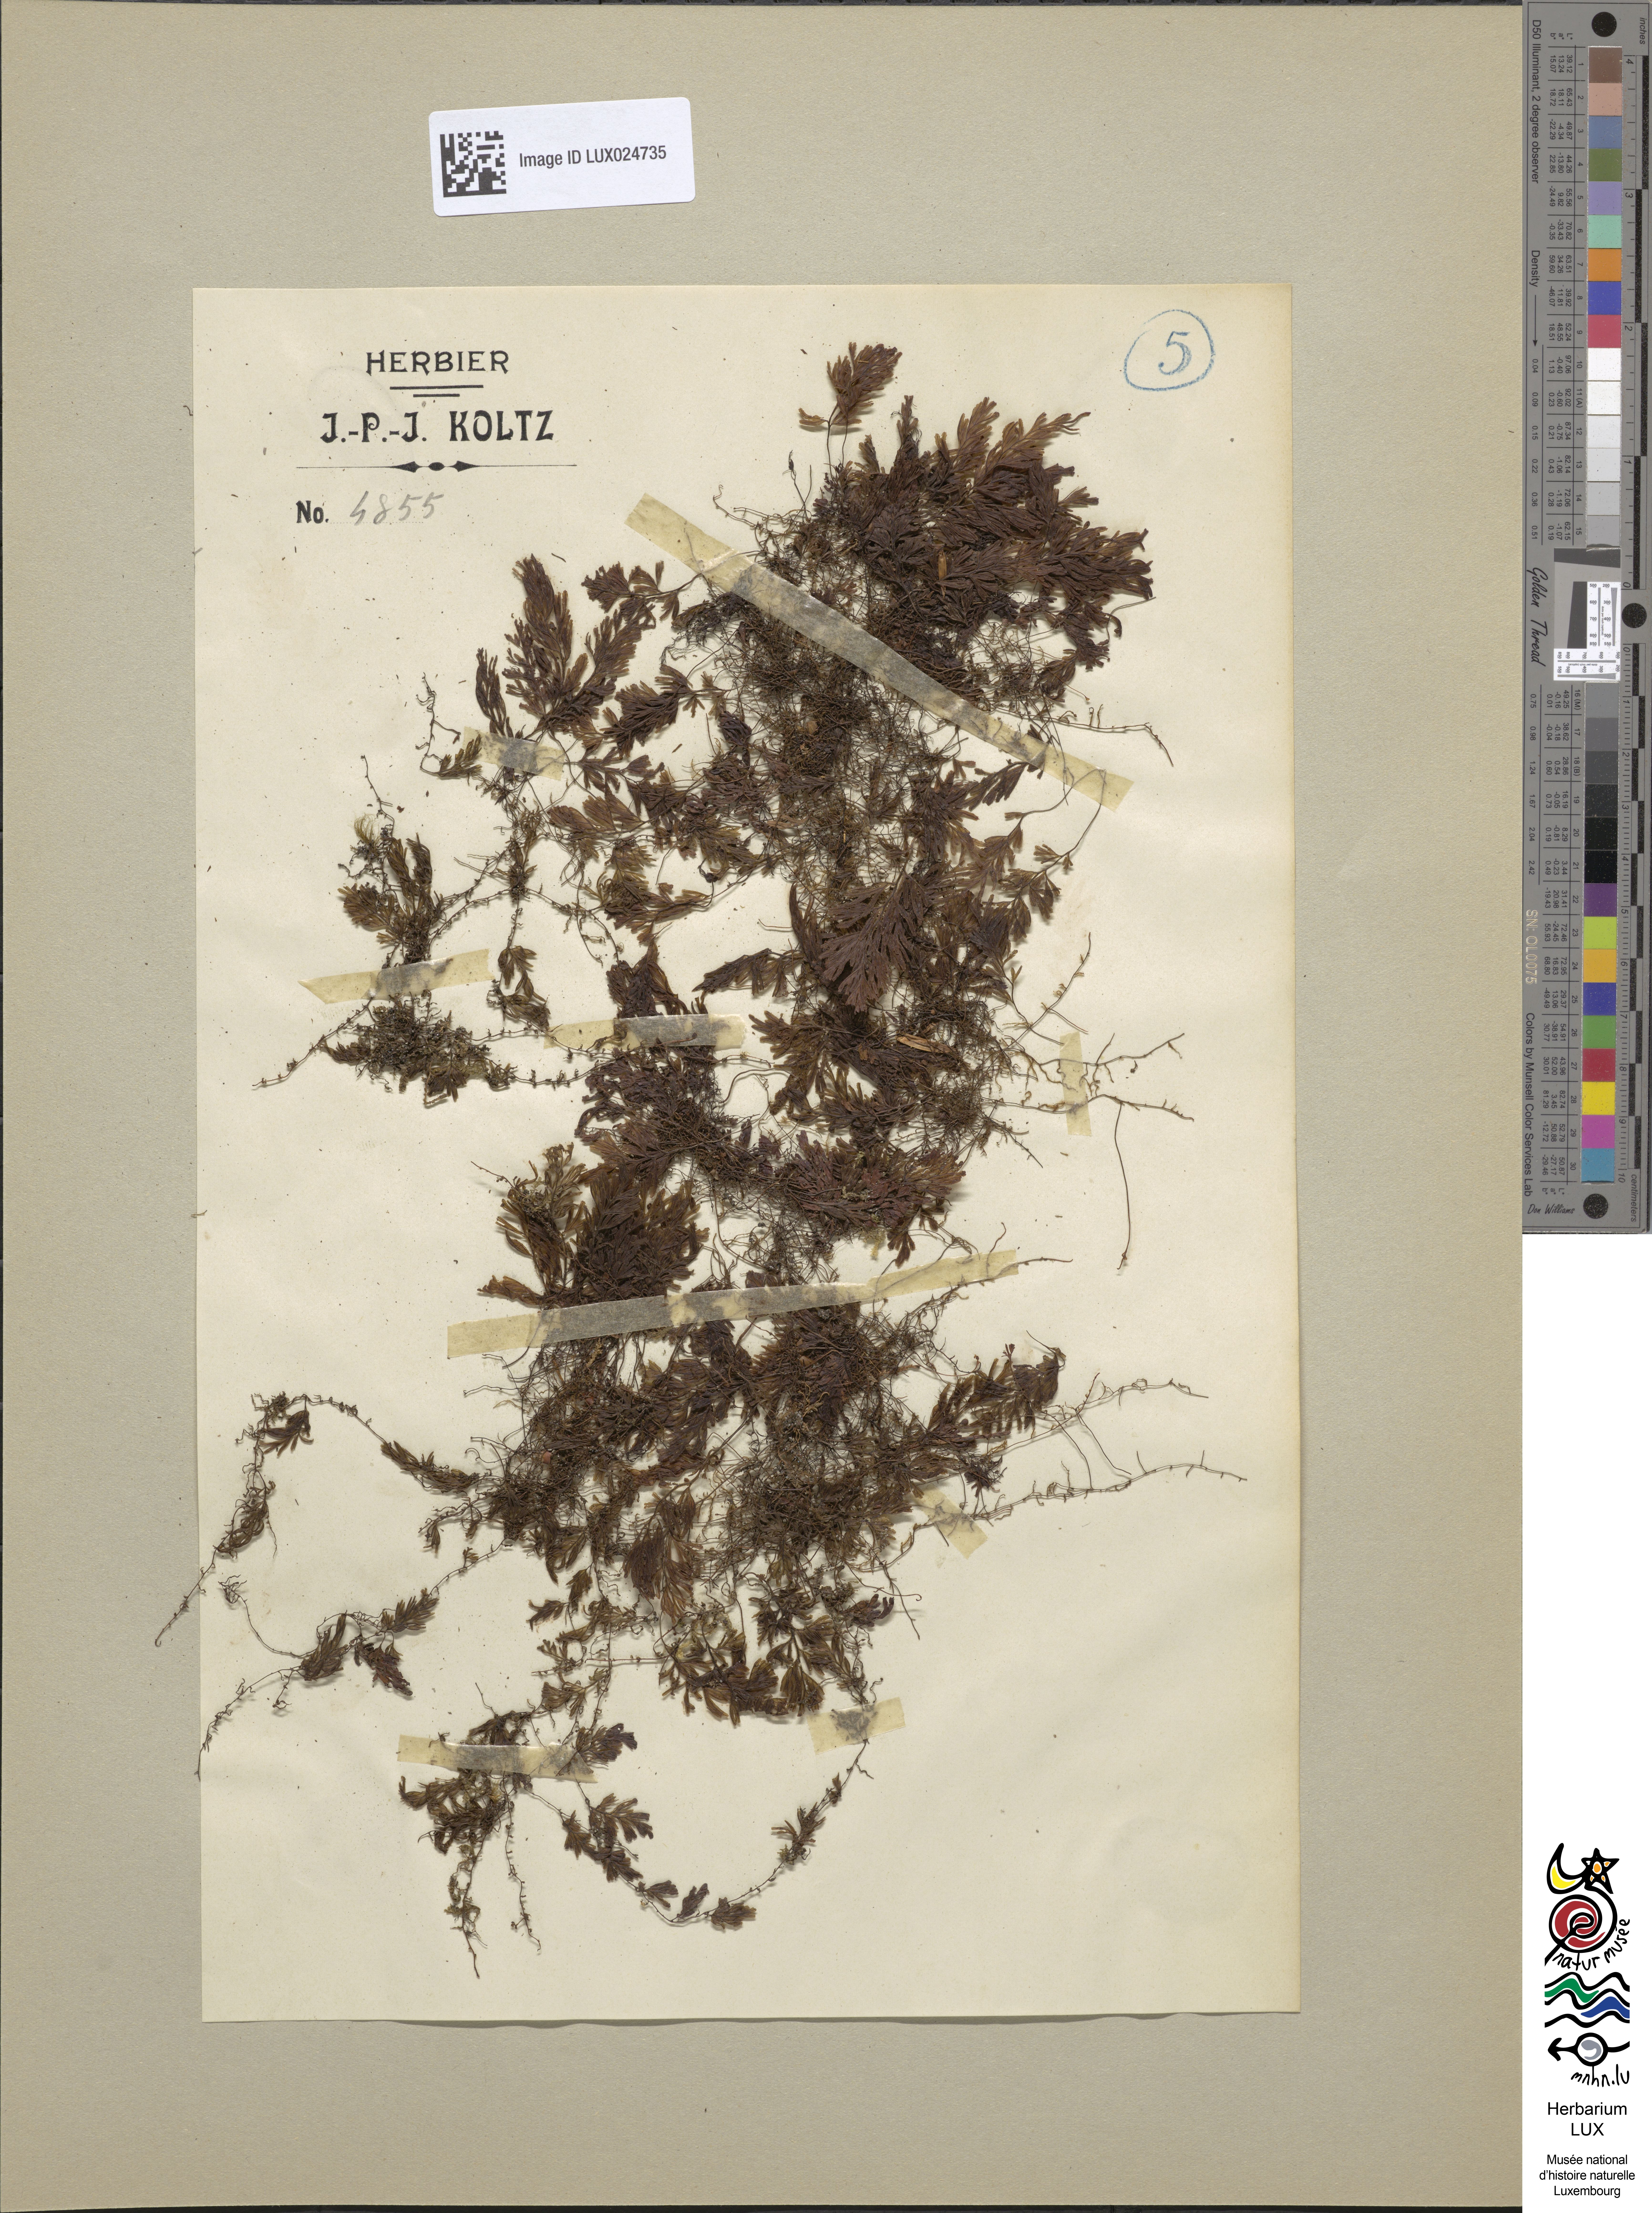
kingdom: Plantae
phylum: Tracheophyta
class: Polypodiopsida
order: Hymenophyllales
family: Hymenophyllaceae
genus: Hymenophyllum
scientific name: Hymenophyllum tunbrigense
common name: Tunbridge filmy fern
